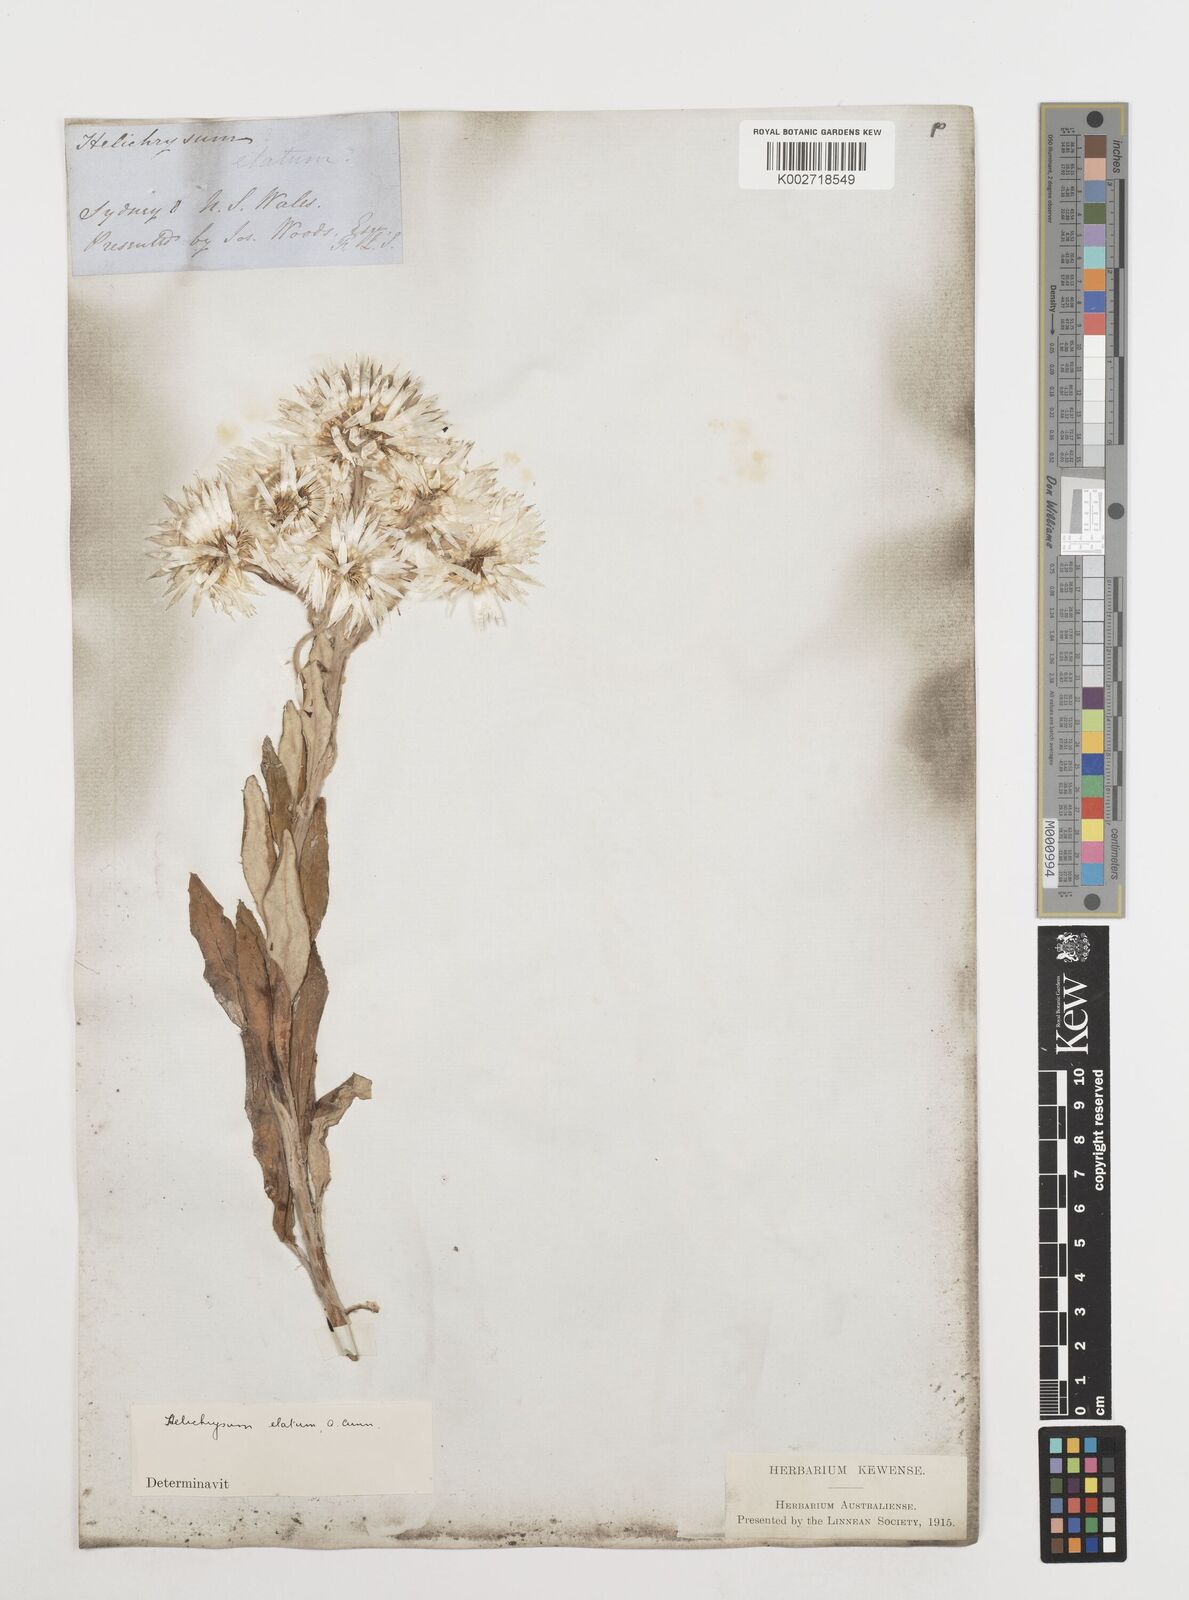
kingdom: Plantae
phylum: Tracheophyta
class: Magnoliopsida
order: Asterales
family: Asteraceae
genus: Leucozoma
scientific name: Leucozoma elatum
